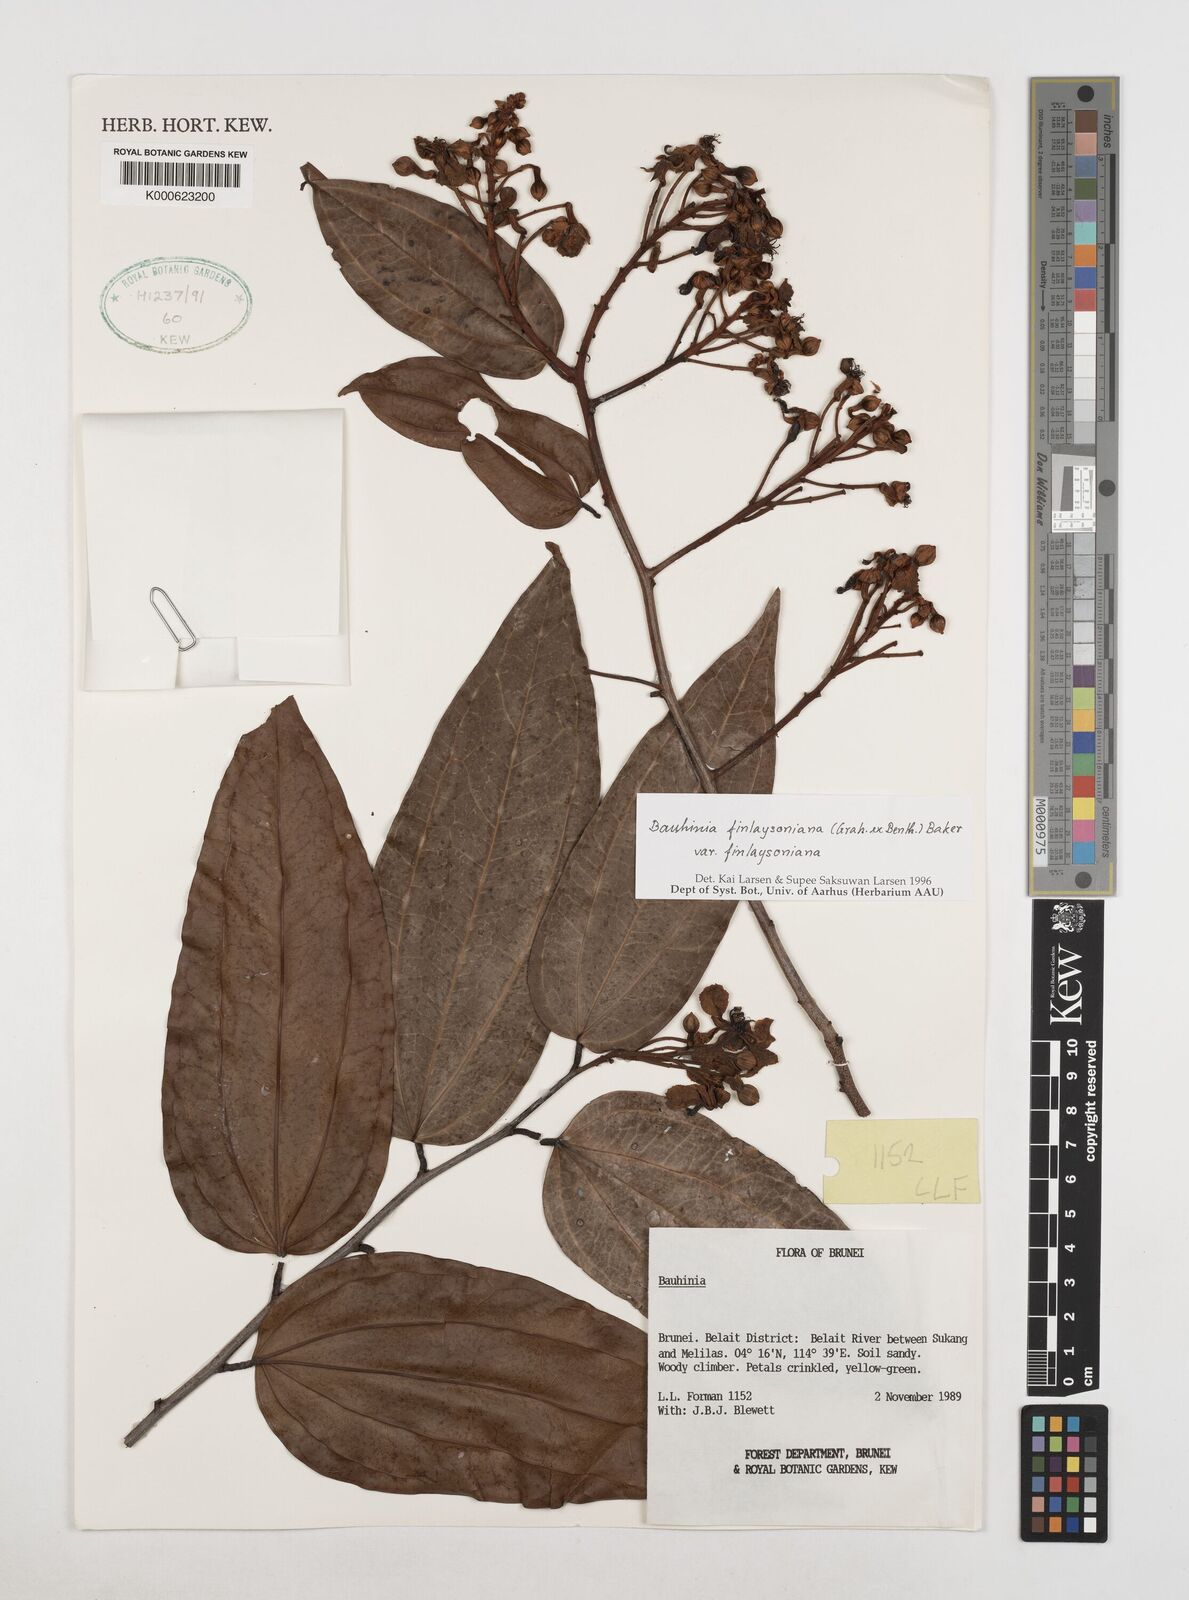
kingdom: Plantae
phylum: Tracheophyta
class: Magnoliopsida
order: Fabales
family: Fabaceae
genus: Bauhinia
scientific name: Bauhinia
